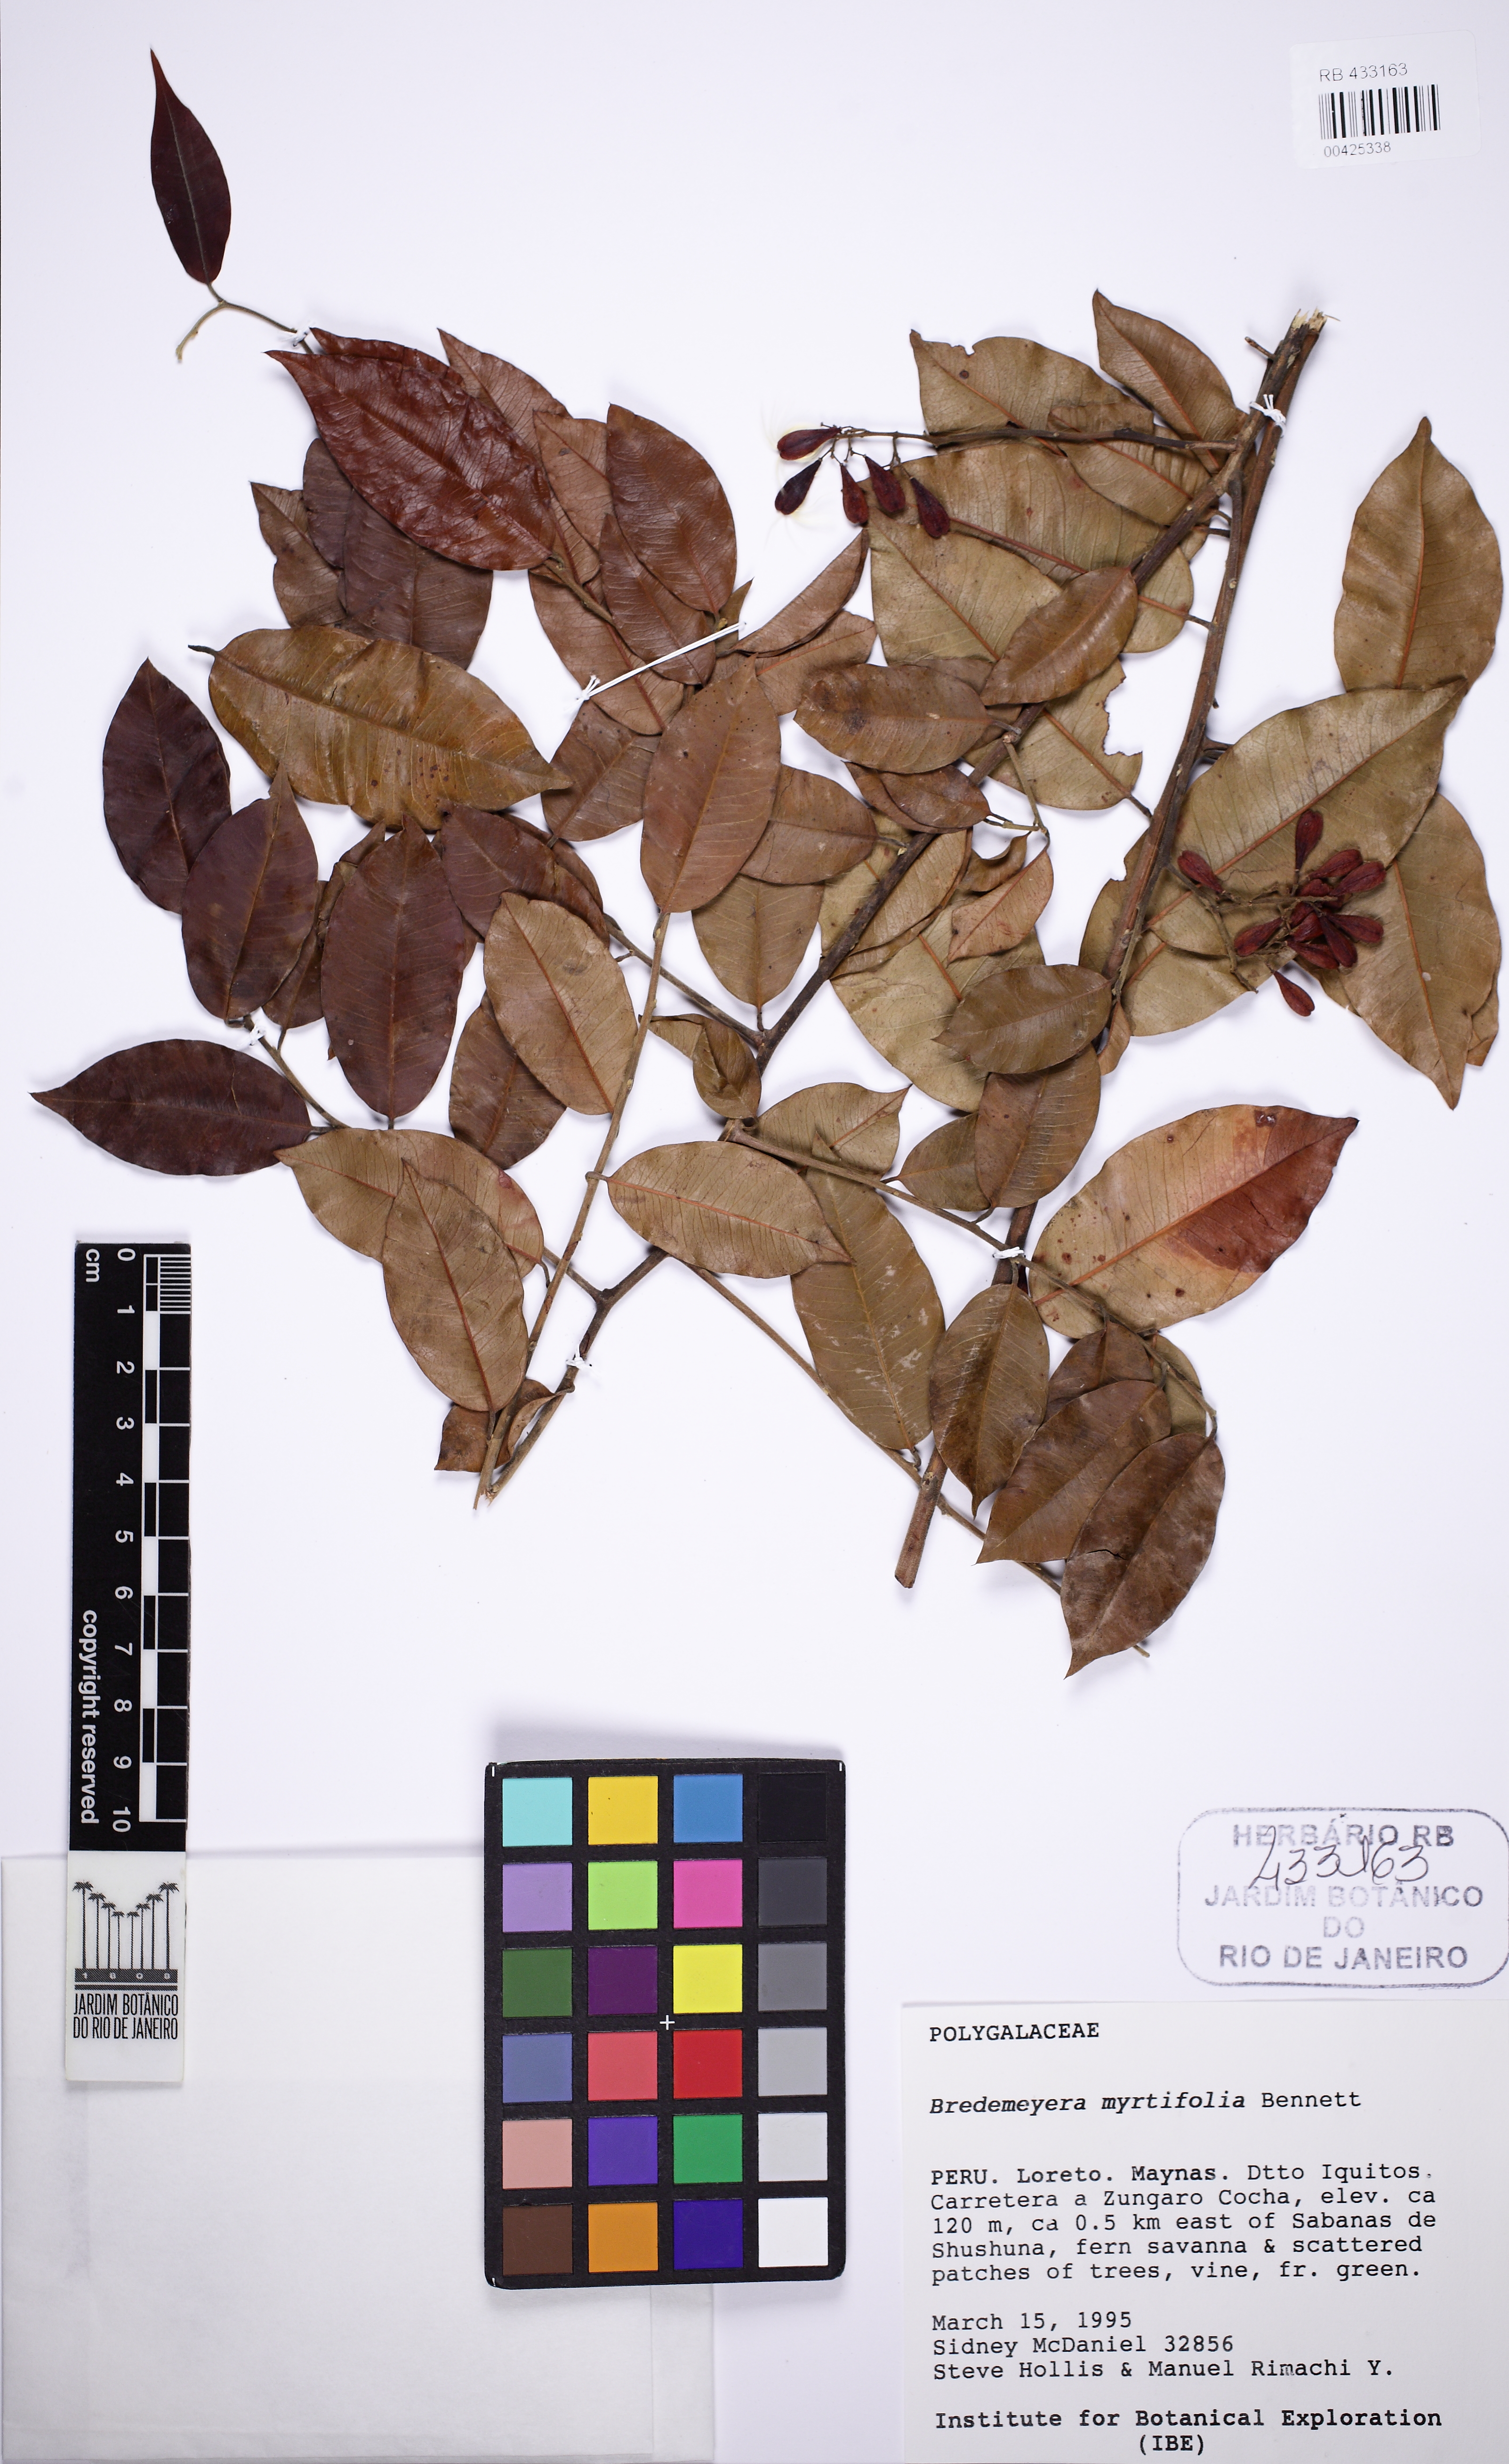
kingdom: Plantae
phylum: Tracheophyta
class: Magnoliopsida
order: Fabales
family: Polygalaceae
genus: Bredemeyera
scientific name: Bredemeyera myrtifolia
